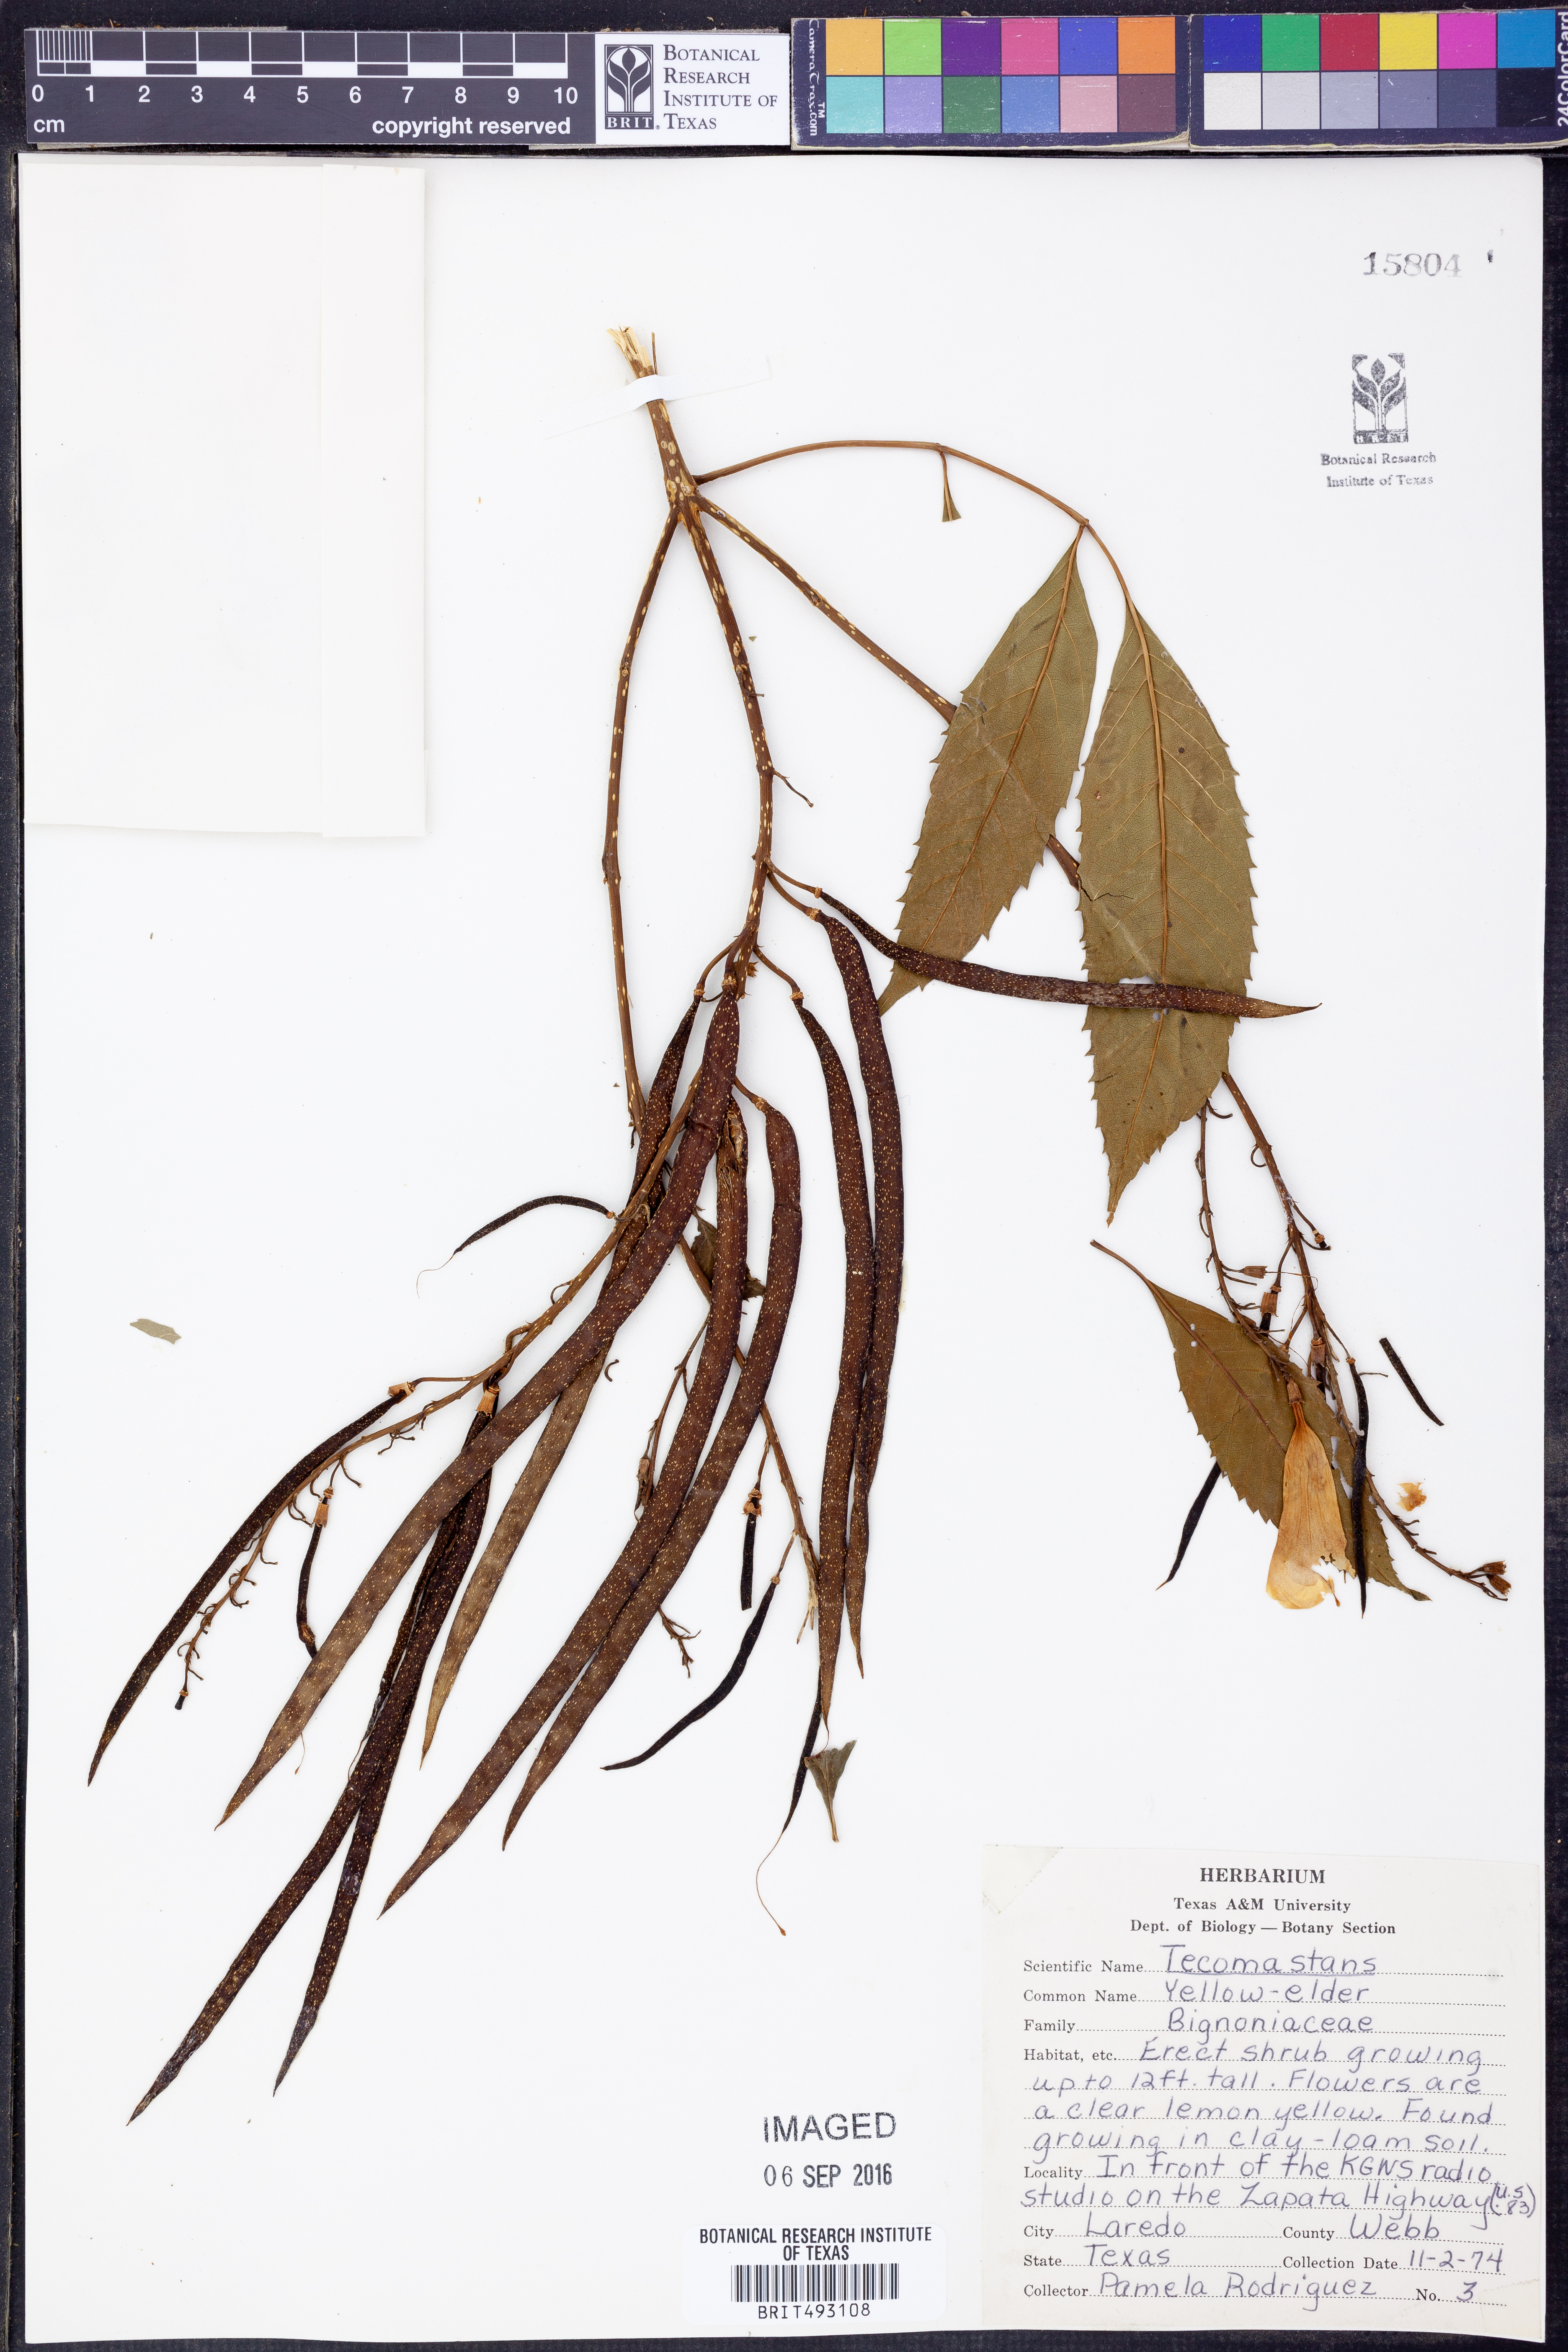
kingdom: Plantae
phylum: Tracheophyta
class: Magnoliopsida
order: Lamiales
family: Bignoniaceae
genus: Tecoma
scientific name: Tecoma stans
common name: Yellow trumpetbush
